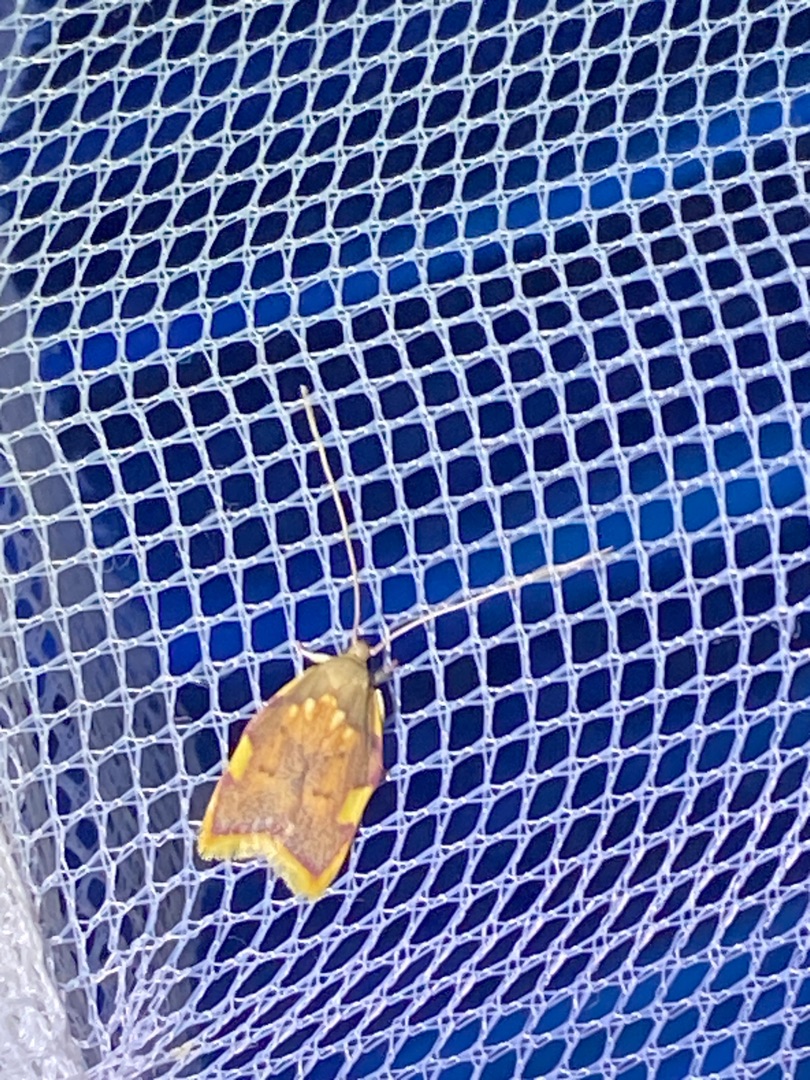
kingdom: Animalia
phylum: Arthropoda
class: Insecta
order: Lepidoptera
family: Peleopodidae
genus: Carcina
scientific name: Carcina quercana
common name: Egeprydvinge
